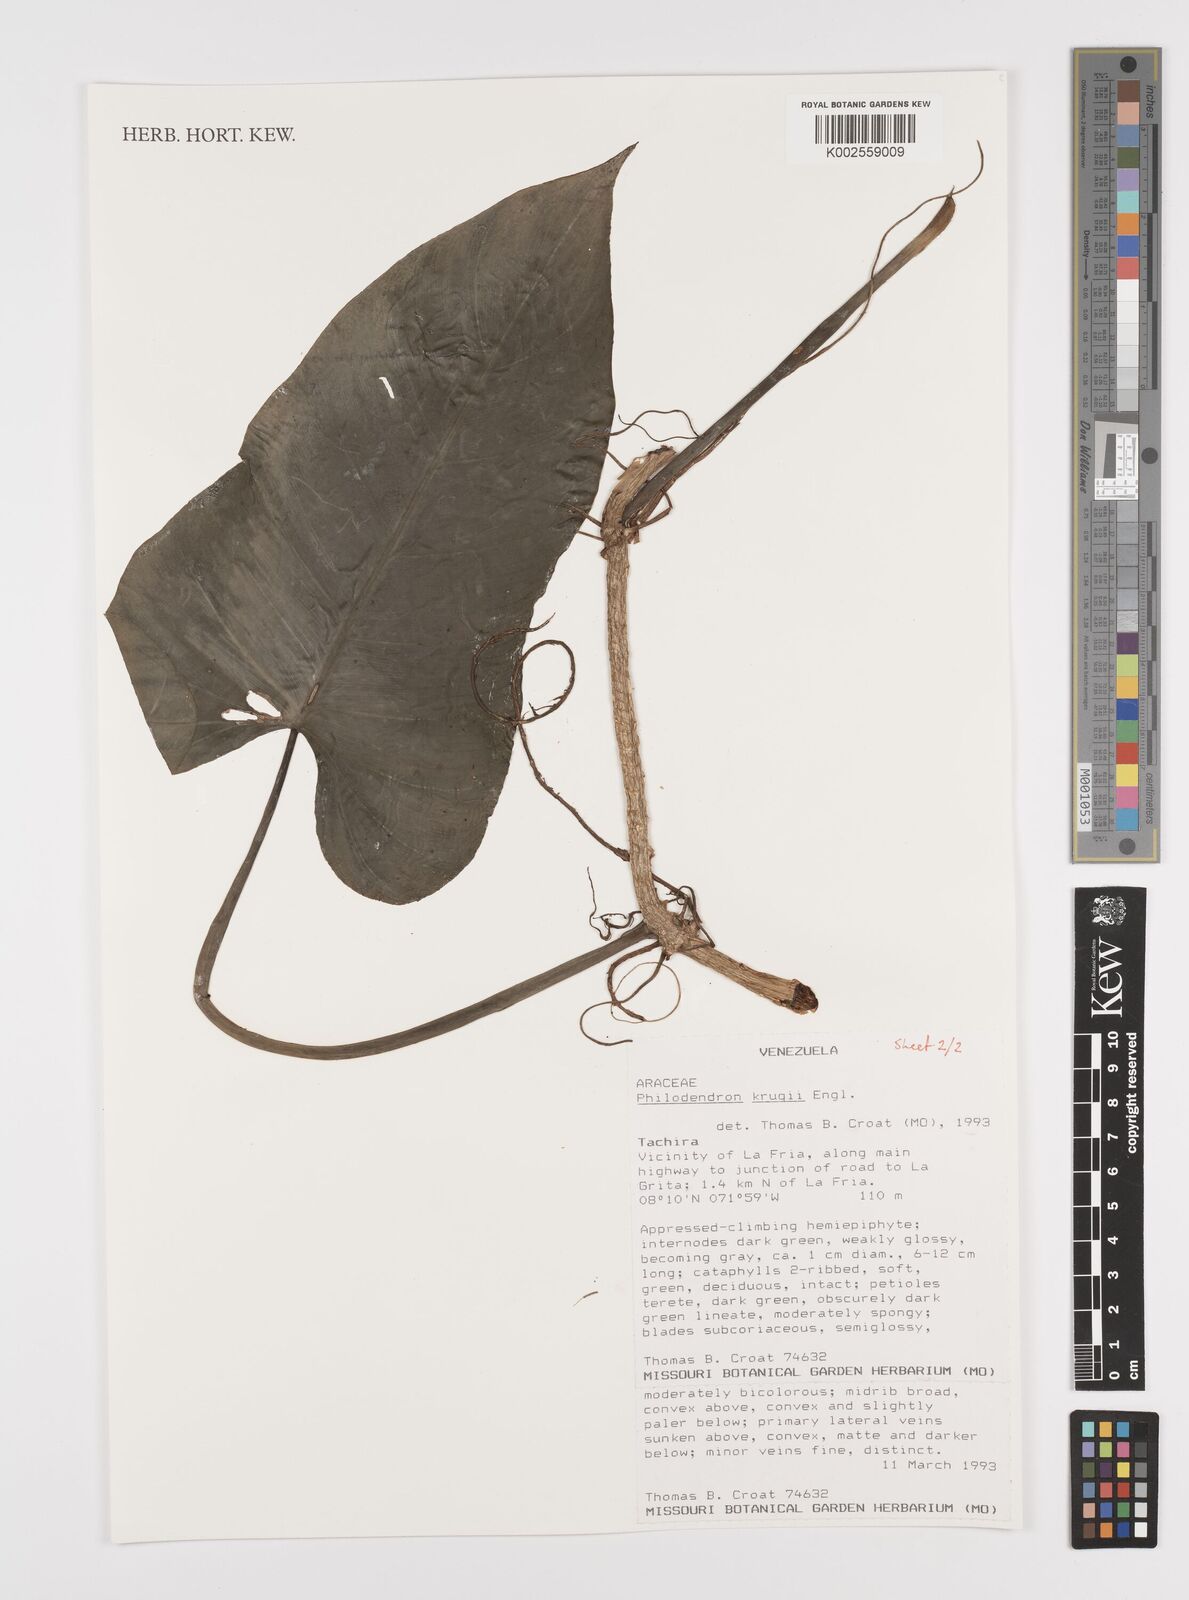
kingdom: Plantae
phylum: Tracheophyta
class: Liliopsida
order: Alismatales
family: Araceae
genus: Philodendron
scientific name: Philodendron krugii
